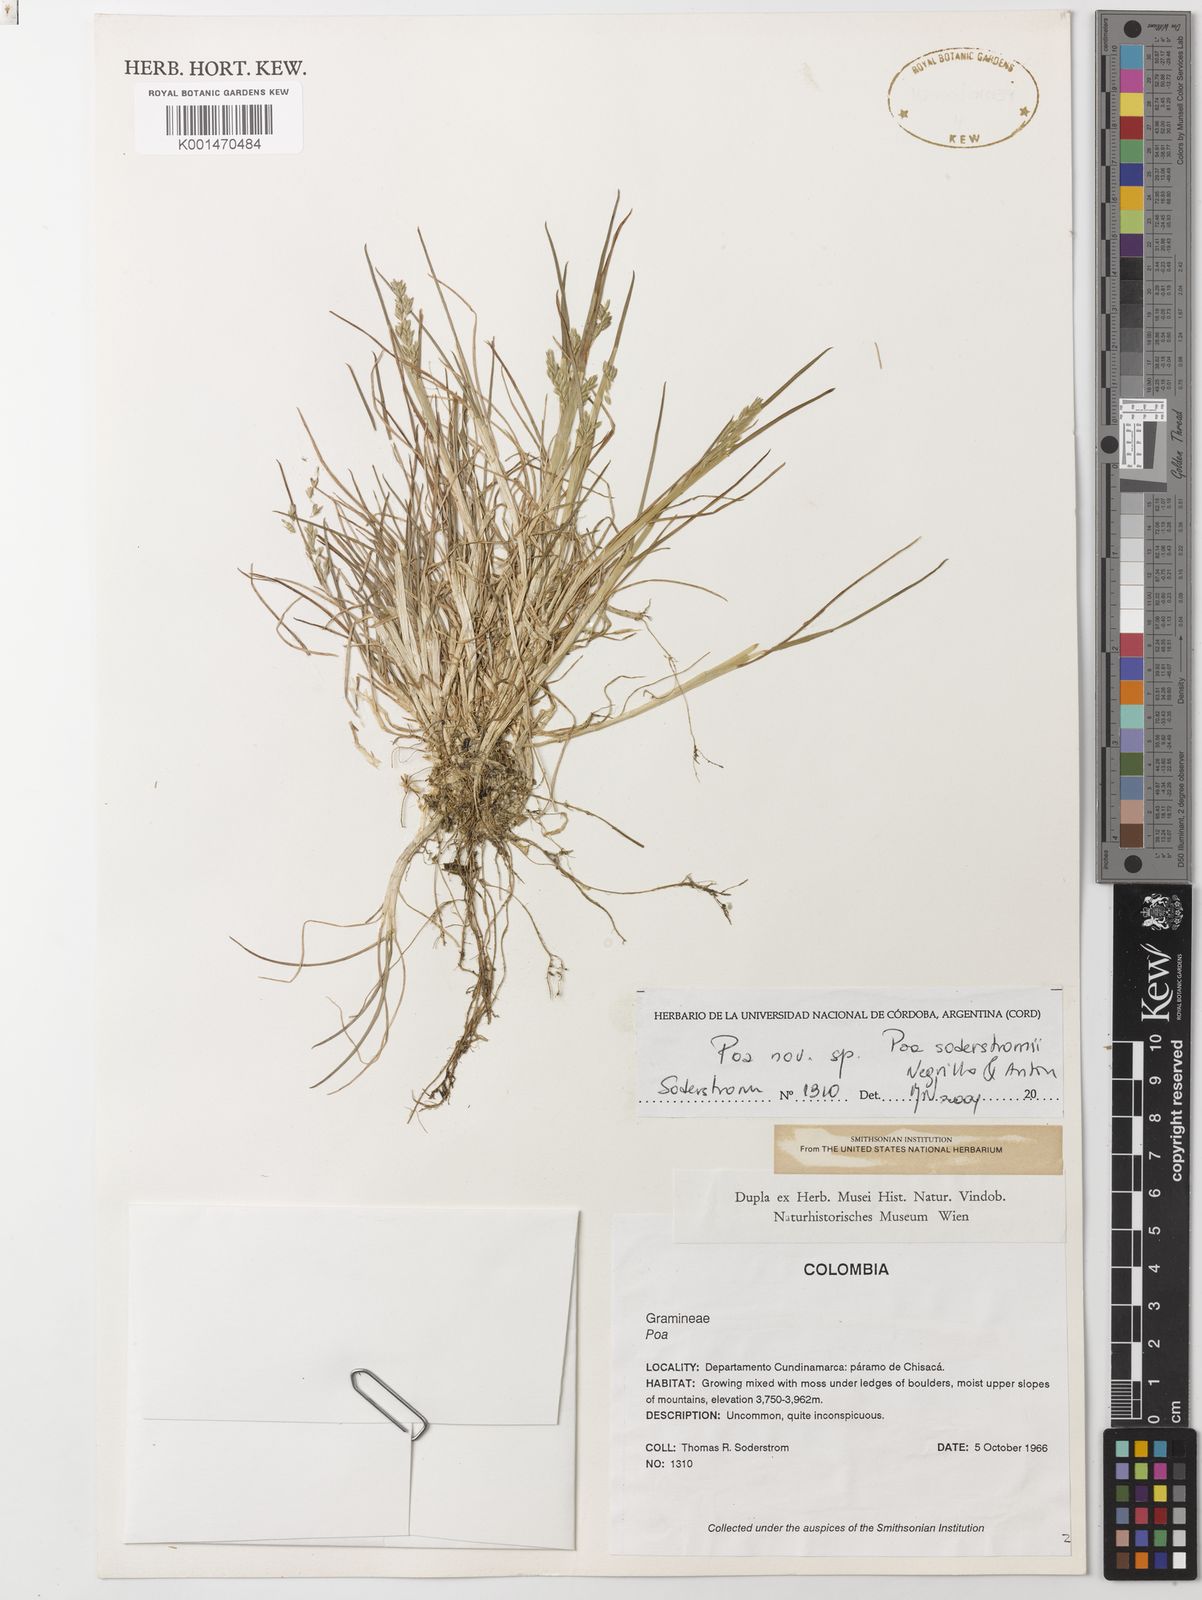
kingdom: Plantae
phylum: Tracheophyta
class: Liliopsida
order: Poales
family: Poaceae
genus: Poa
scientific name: Poa orthophylla
